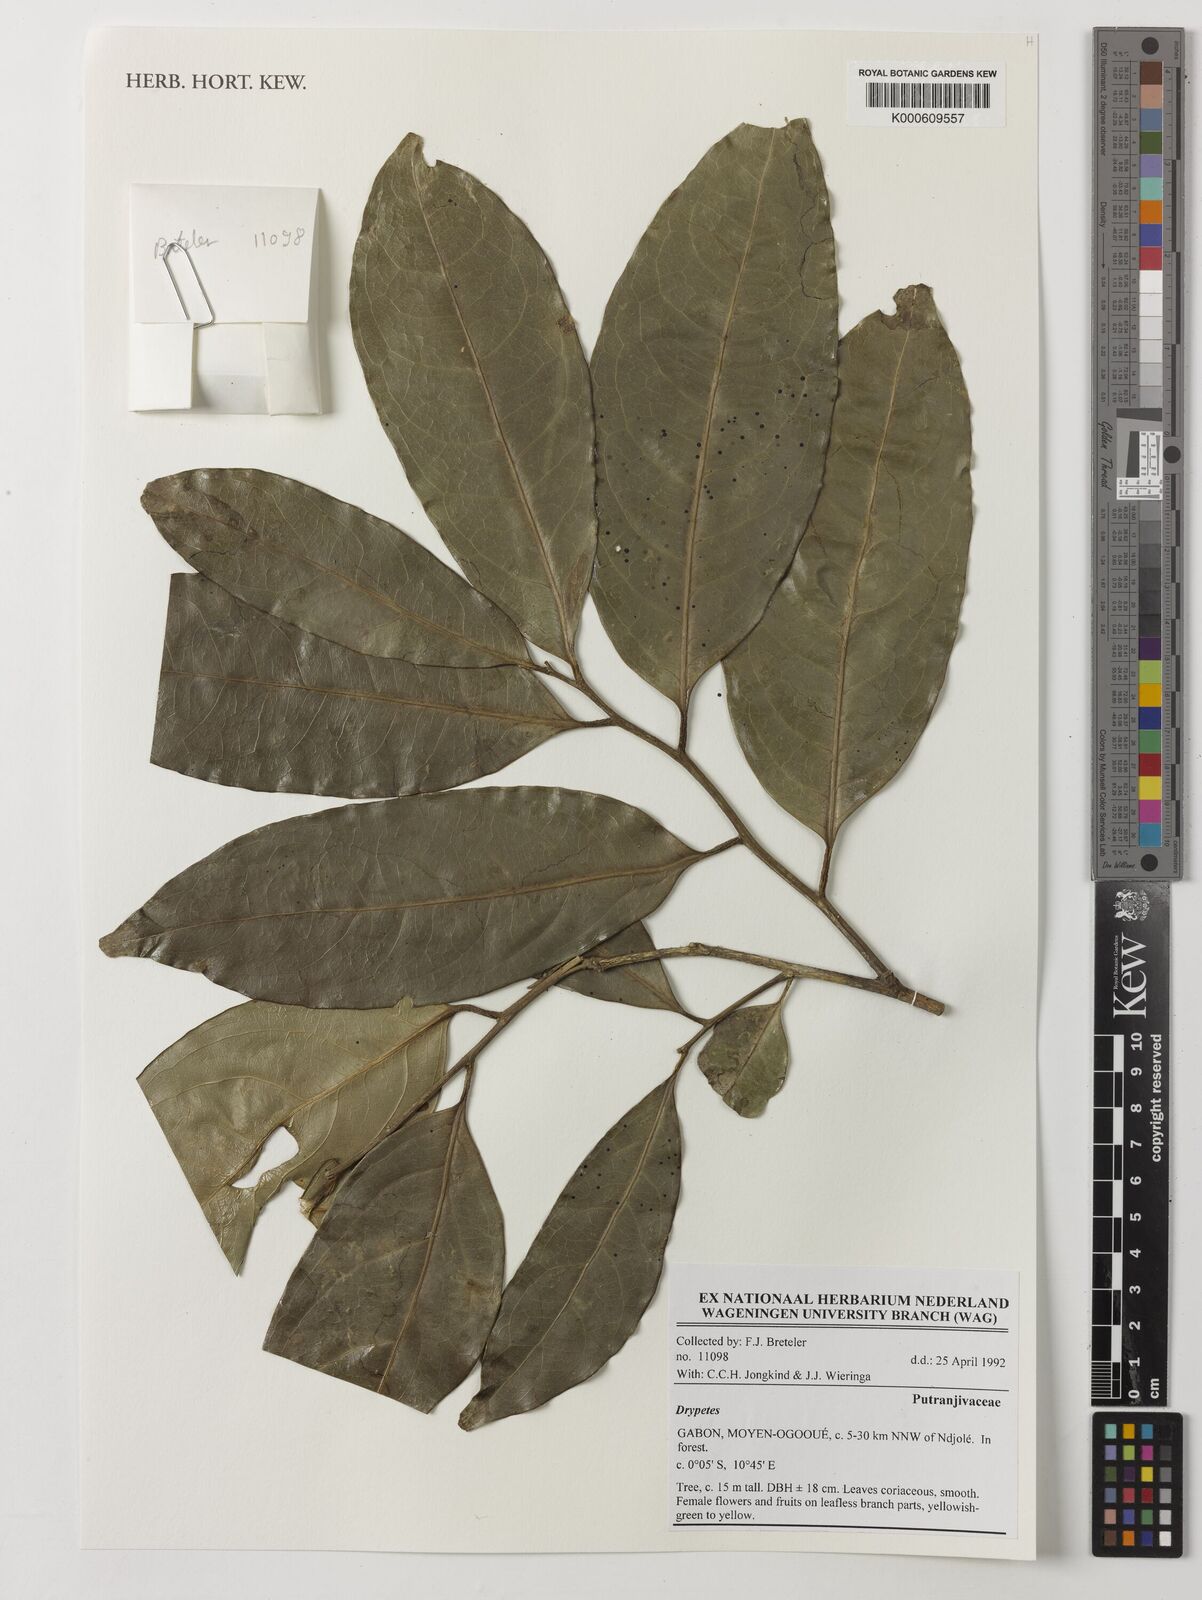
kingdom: Plantae
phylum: Tracheophyta
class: Magnoliopsida
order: Malpighiales
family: Putranjivaceae
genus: Drypetes
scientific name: Drypetes
